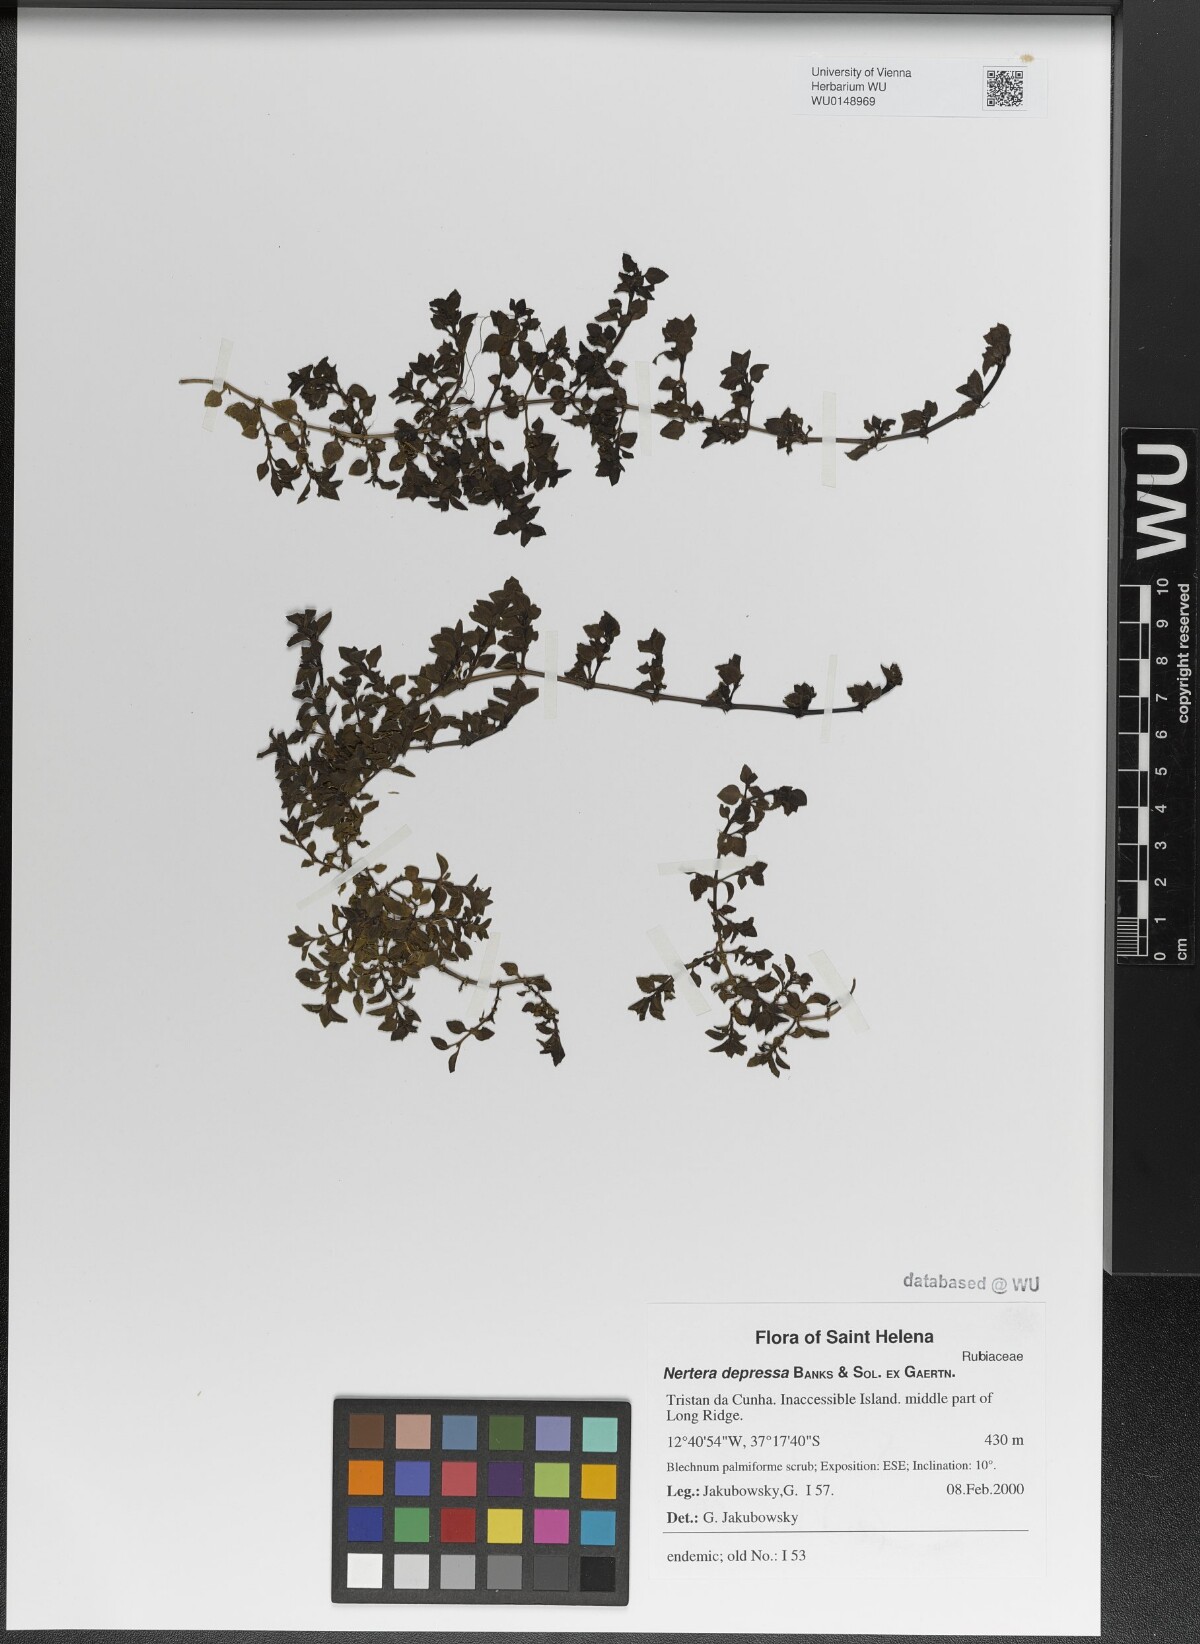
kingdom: Plantae
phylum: Tracheophyta
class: Magnoliopsida
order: Gentianales
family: Rubiaceae
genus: Nertera
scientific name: Nertera granadensis
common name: Beadplant
